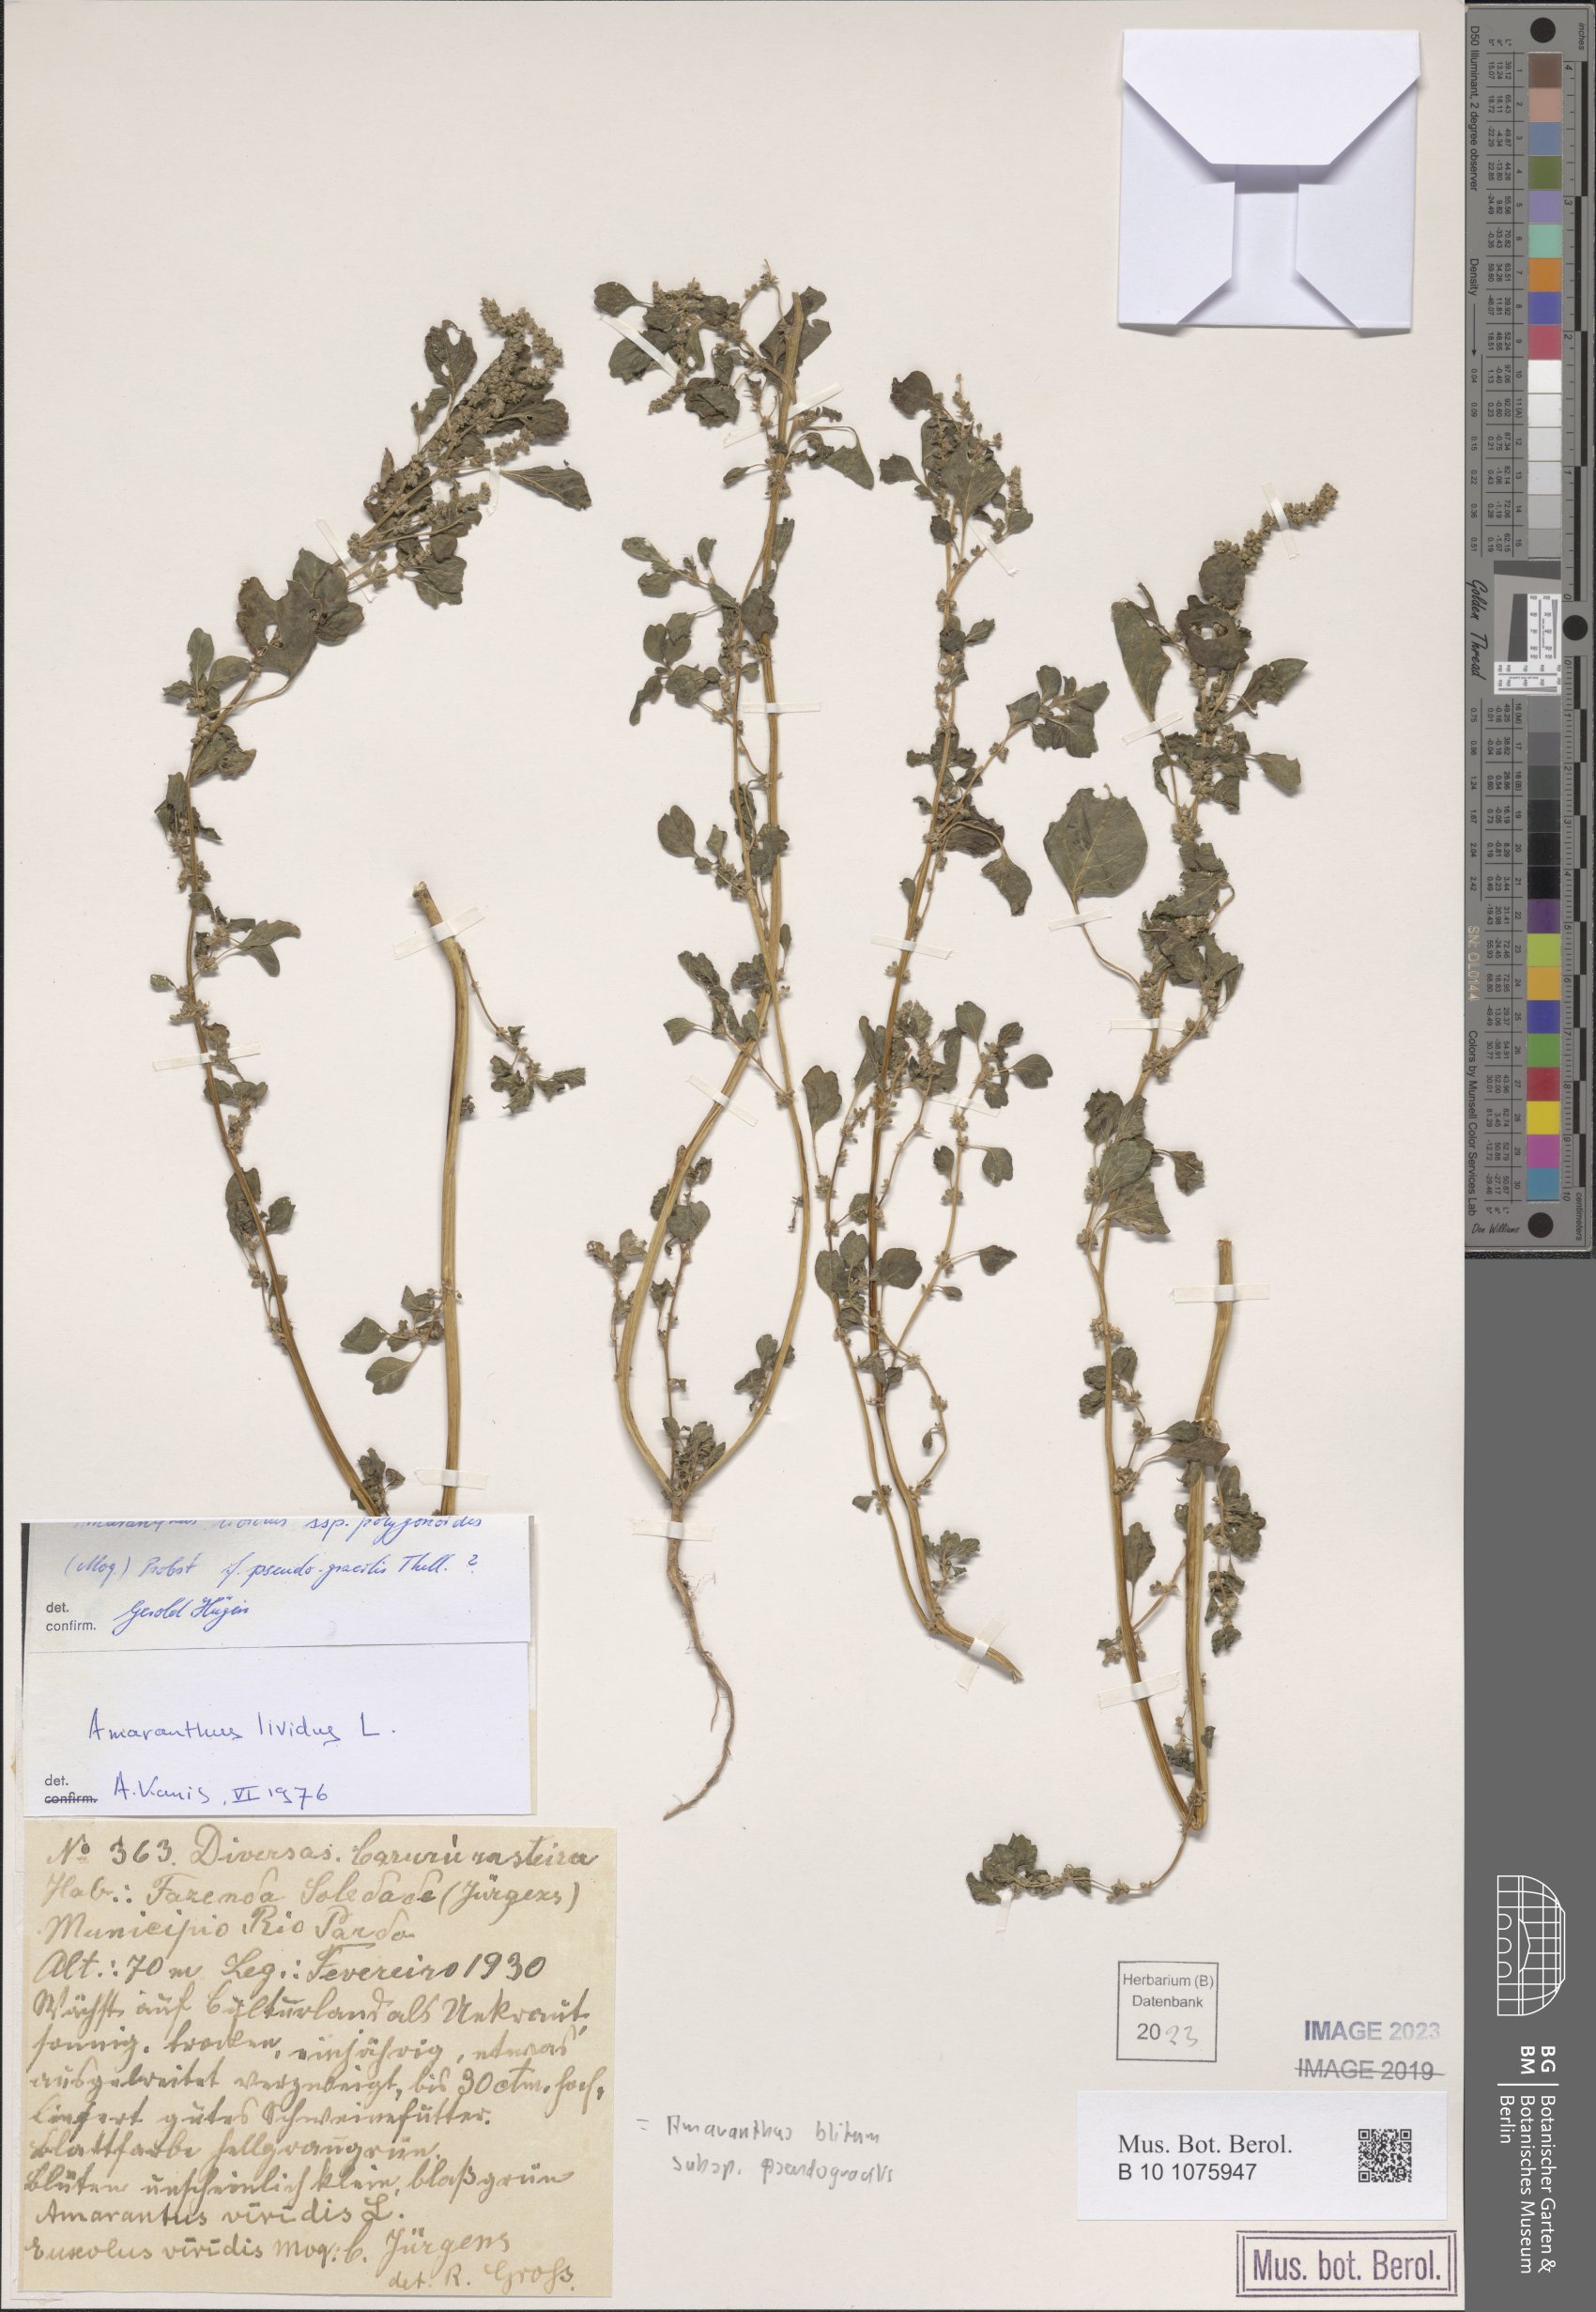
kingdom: Plantae
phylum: Tracheophyta
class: Magnoliopsida
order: Caryophyllales
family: Amaranthaceae
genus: Amaranthus
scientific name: Amaranthus emarginatus
